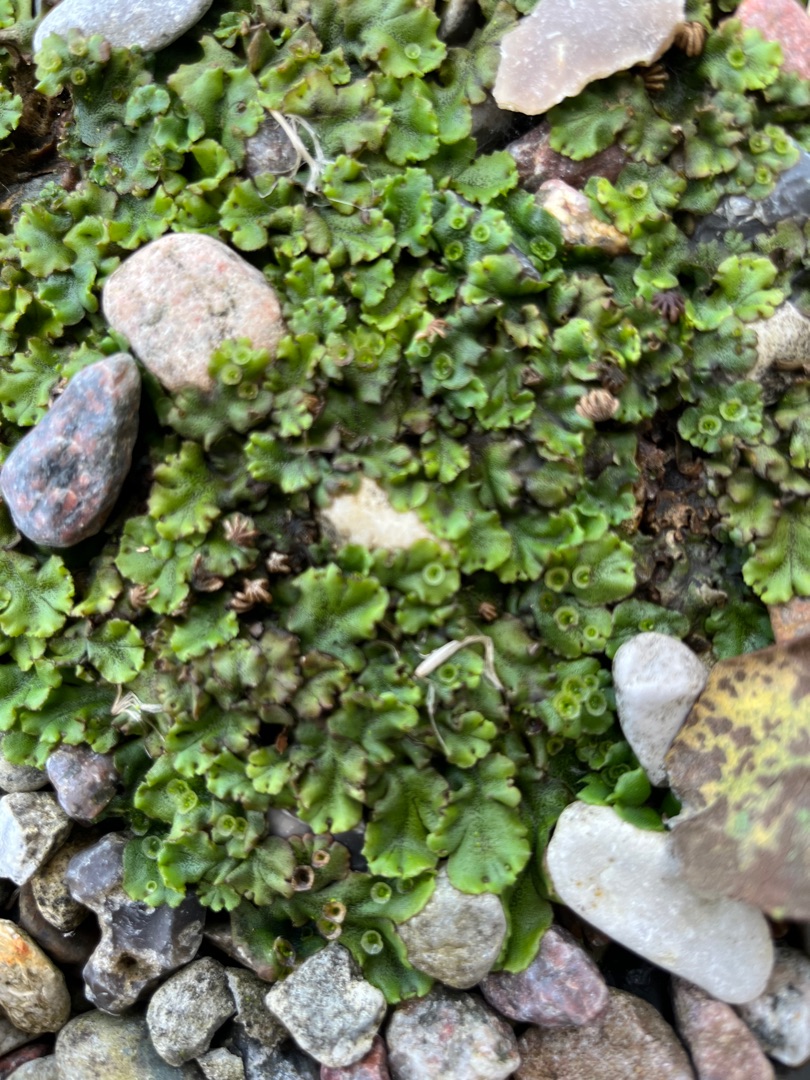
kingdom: Plantae
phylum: Marchantiophyta
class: Marchantiopsida
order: Marchantiales
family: Marchantiaceae
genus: Marchantia
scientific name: Marchantia polymorpha
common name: Almindelig lungemos (underart)
